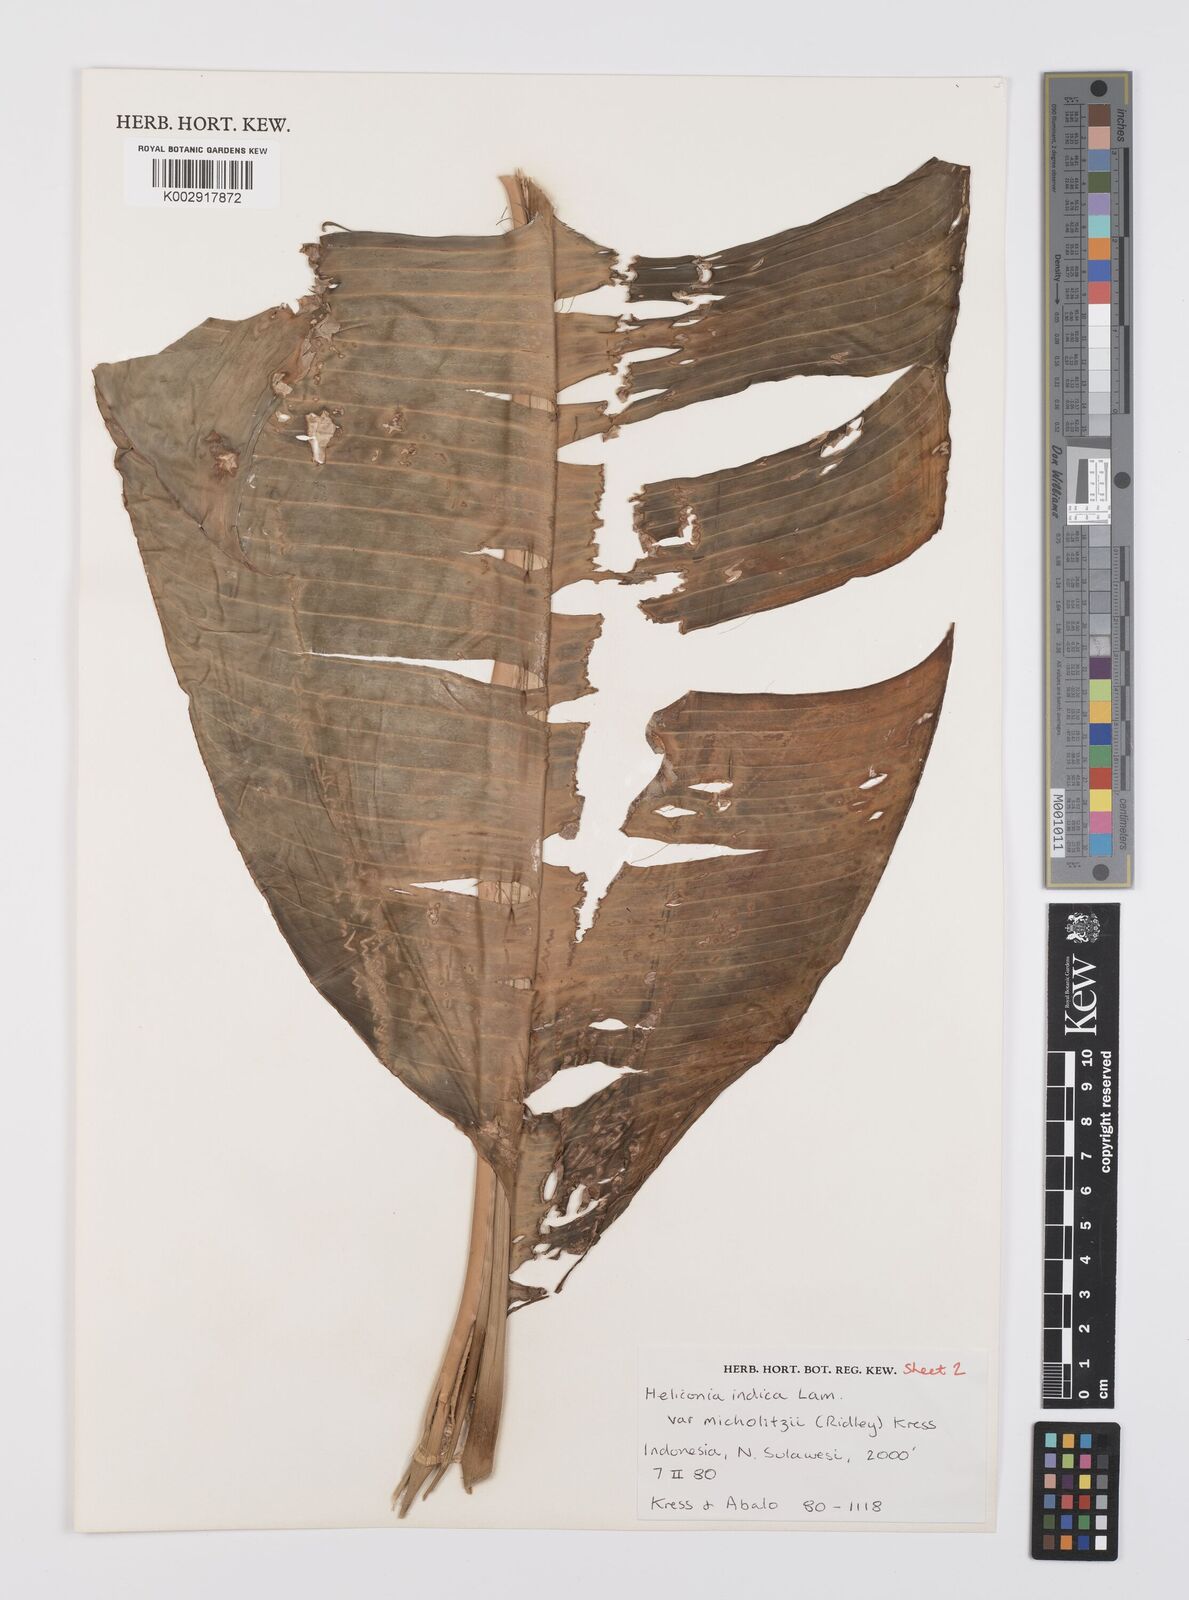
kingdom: Plantae
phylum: Tracheophyta
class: Liliopsida
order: Zingiberales
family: Heliconiaceae
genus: Heliconia
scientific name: Heliconia indica
